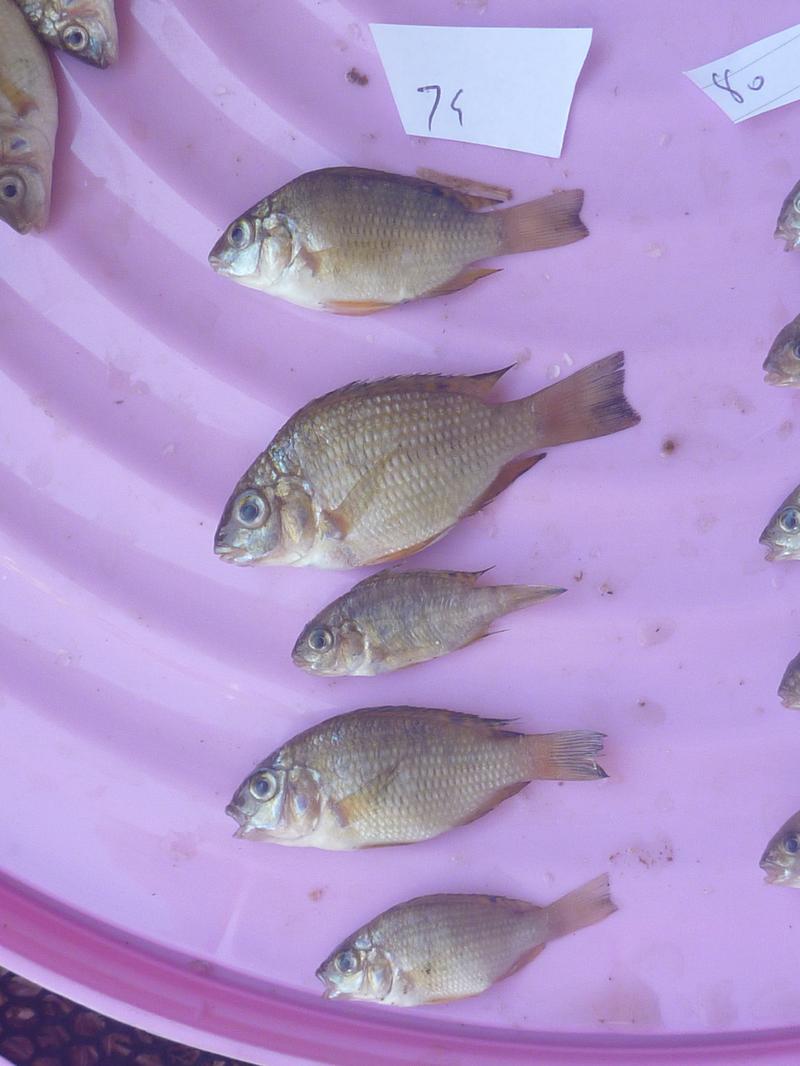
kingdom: Animalia
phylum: Chordata
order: Perciformes
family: Cichlidae
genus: Coptodon
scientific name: Coptodon rendalli
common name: Redbreast tilapia
